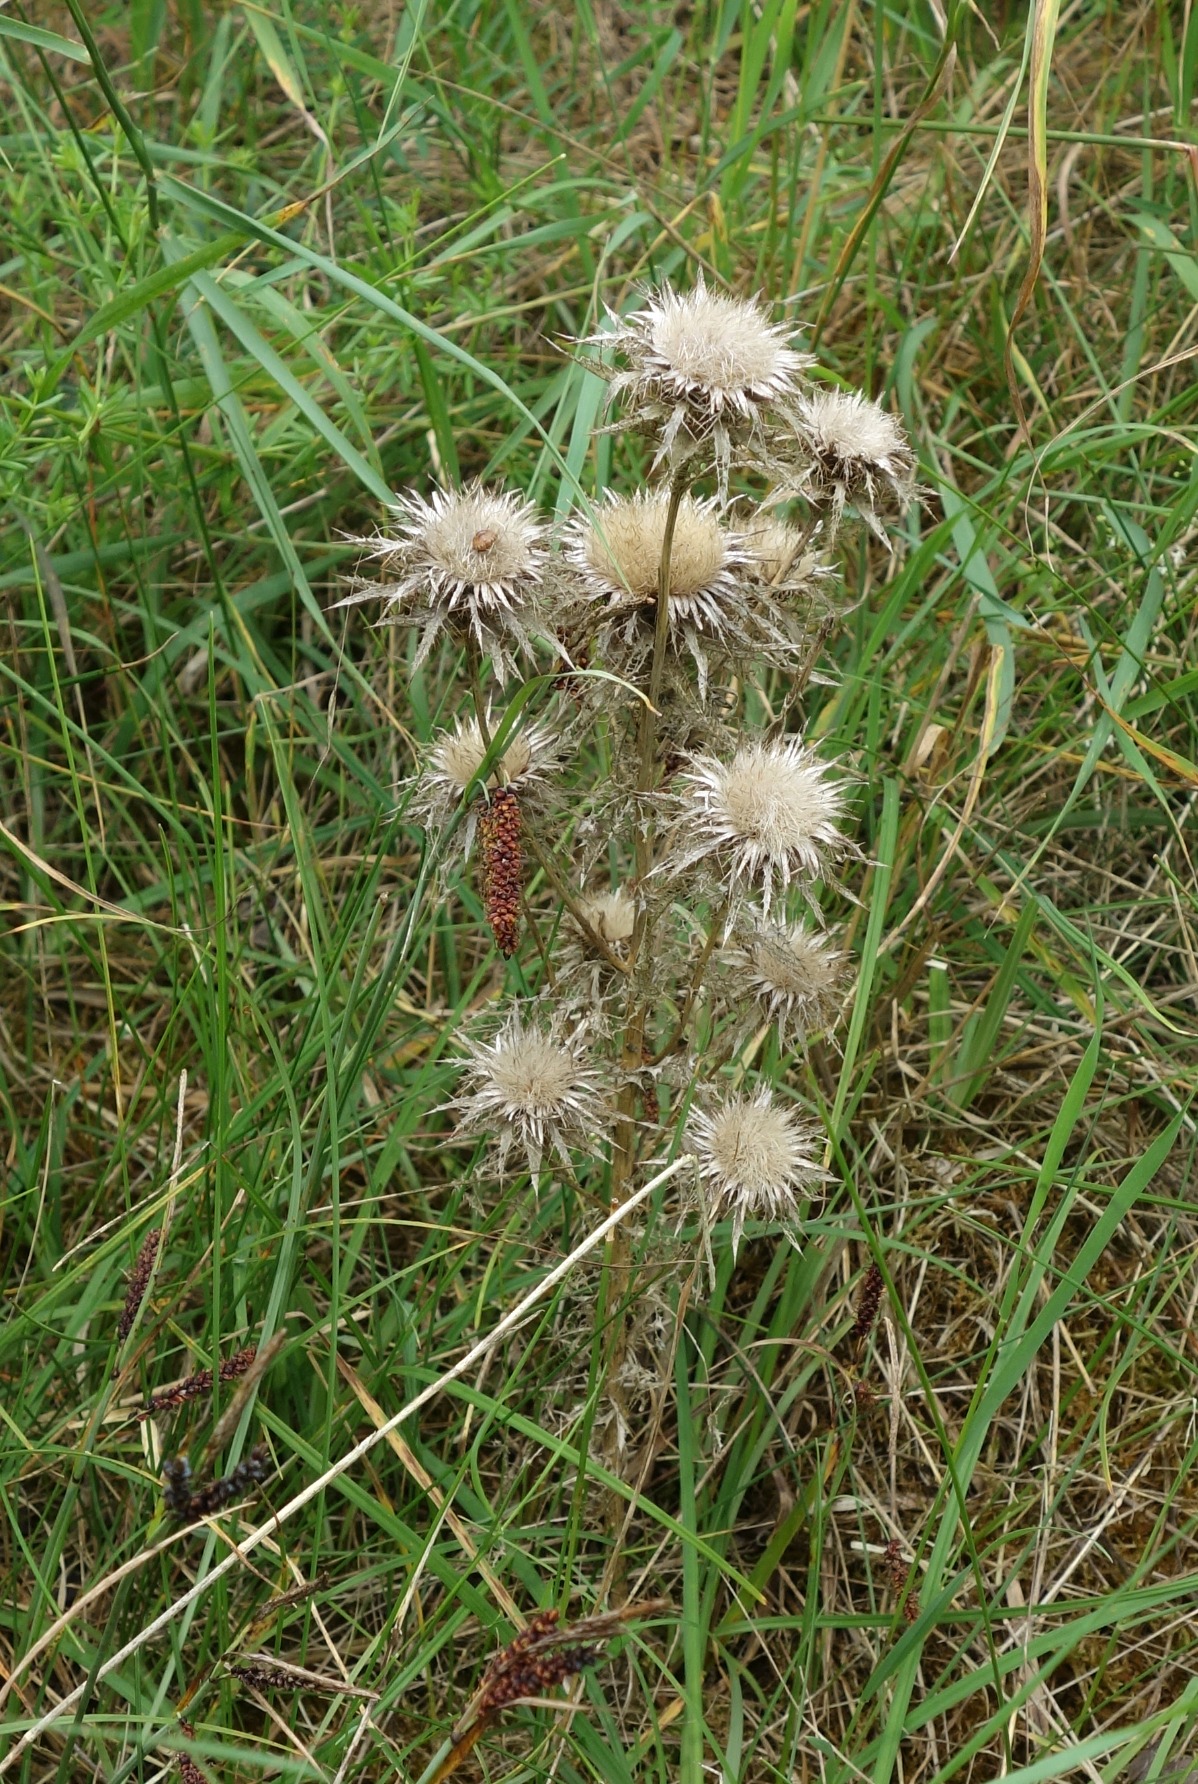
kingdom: Plantae
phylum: Tracheophyta
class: Magnoliopsida
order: Asterales
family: Asteraceae
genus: Carlina
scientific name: Carlina vulgaris
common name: Bakketidsel
